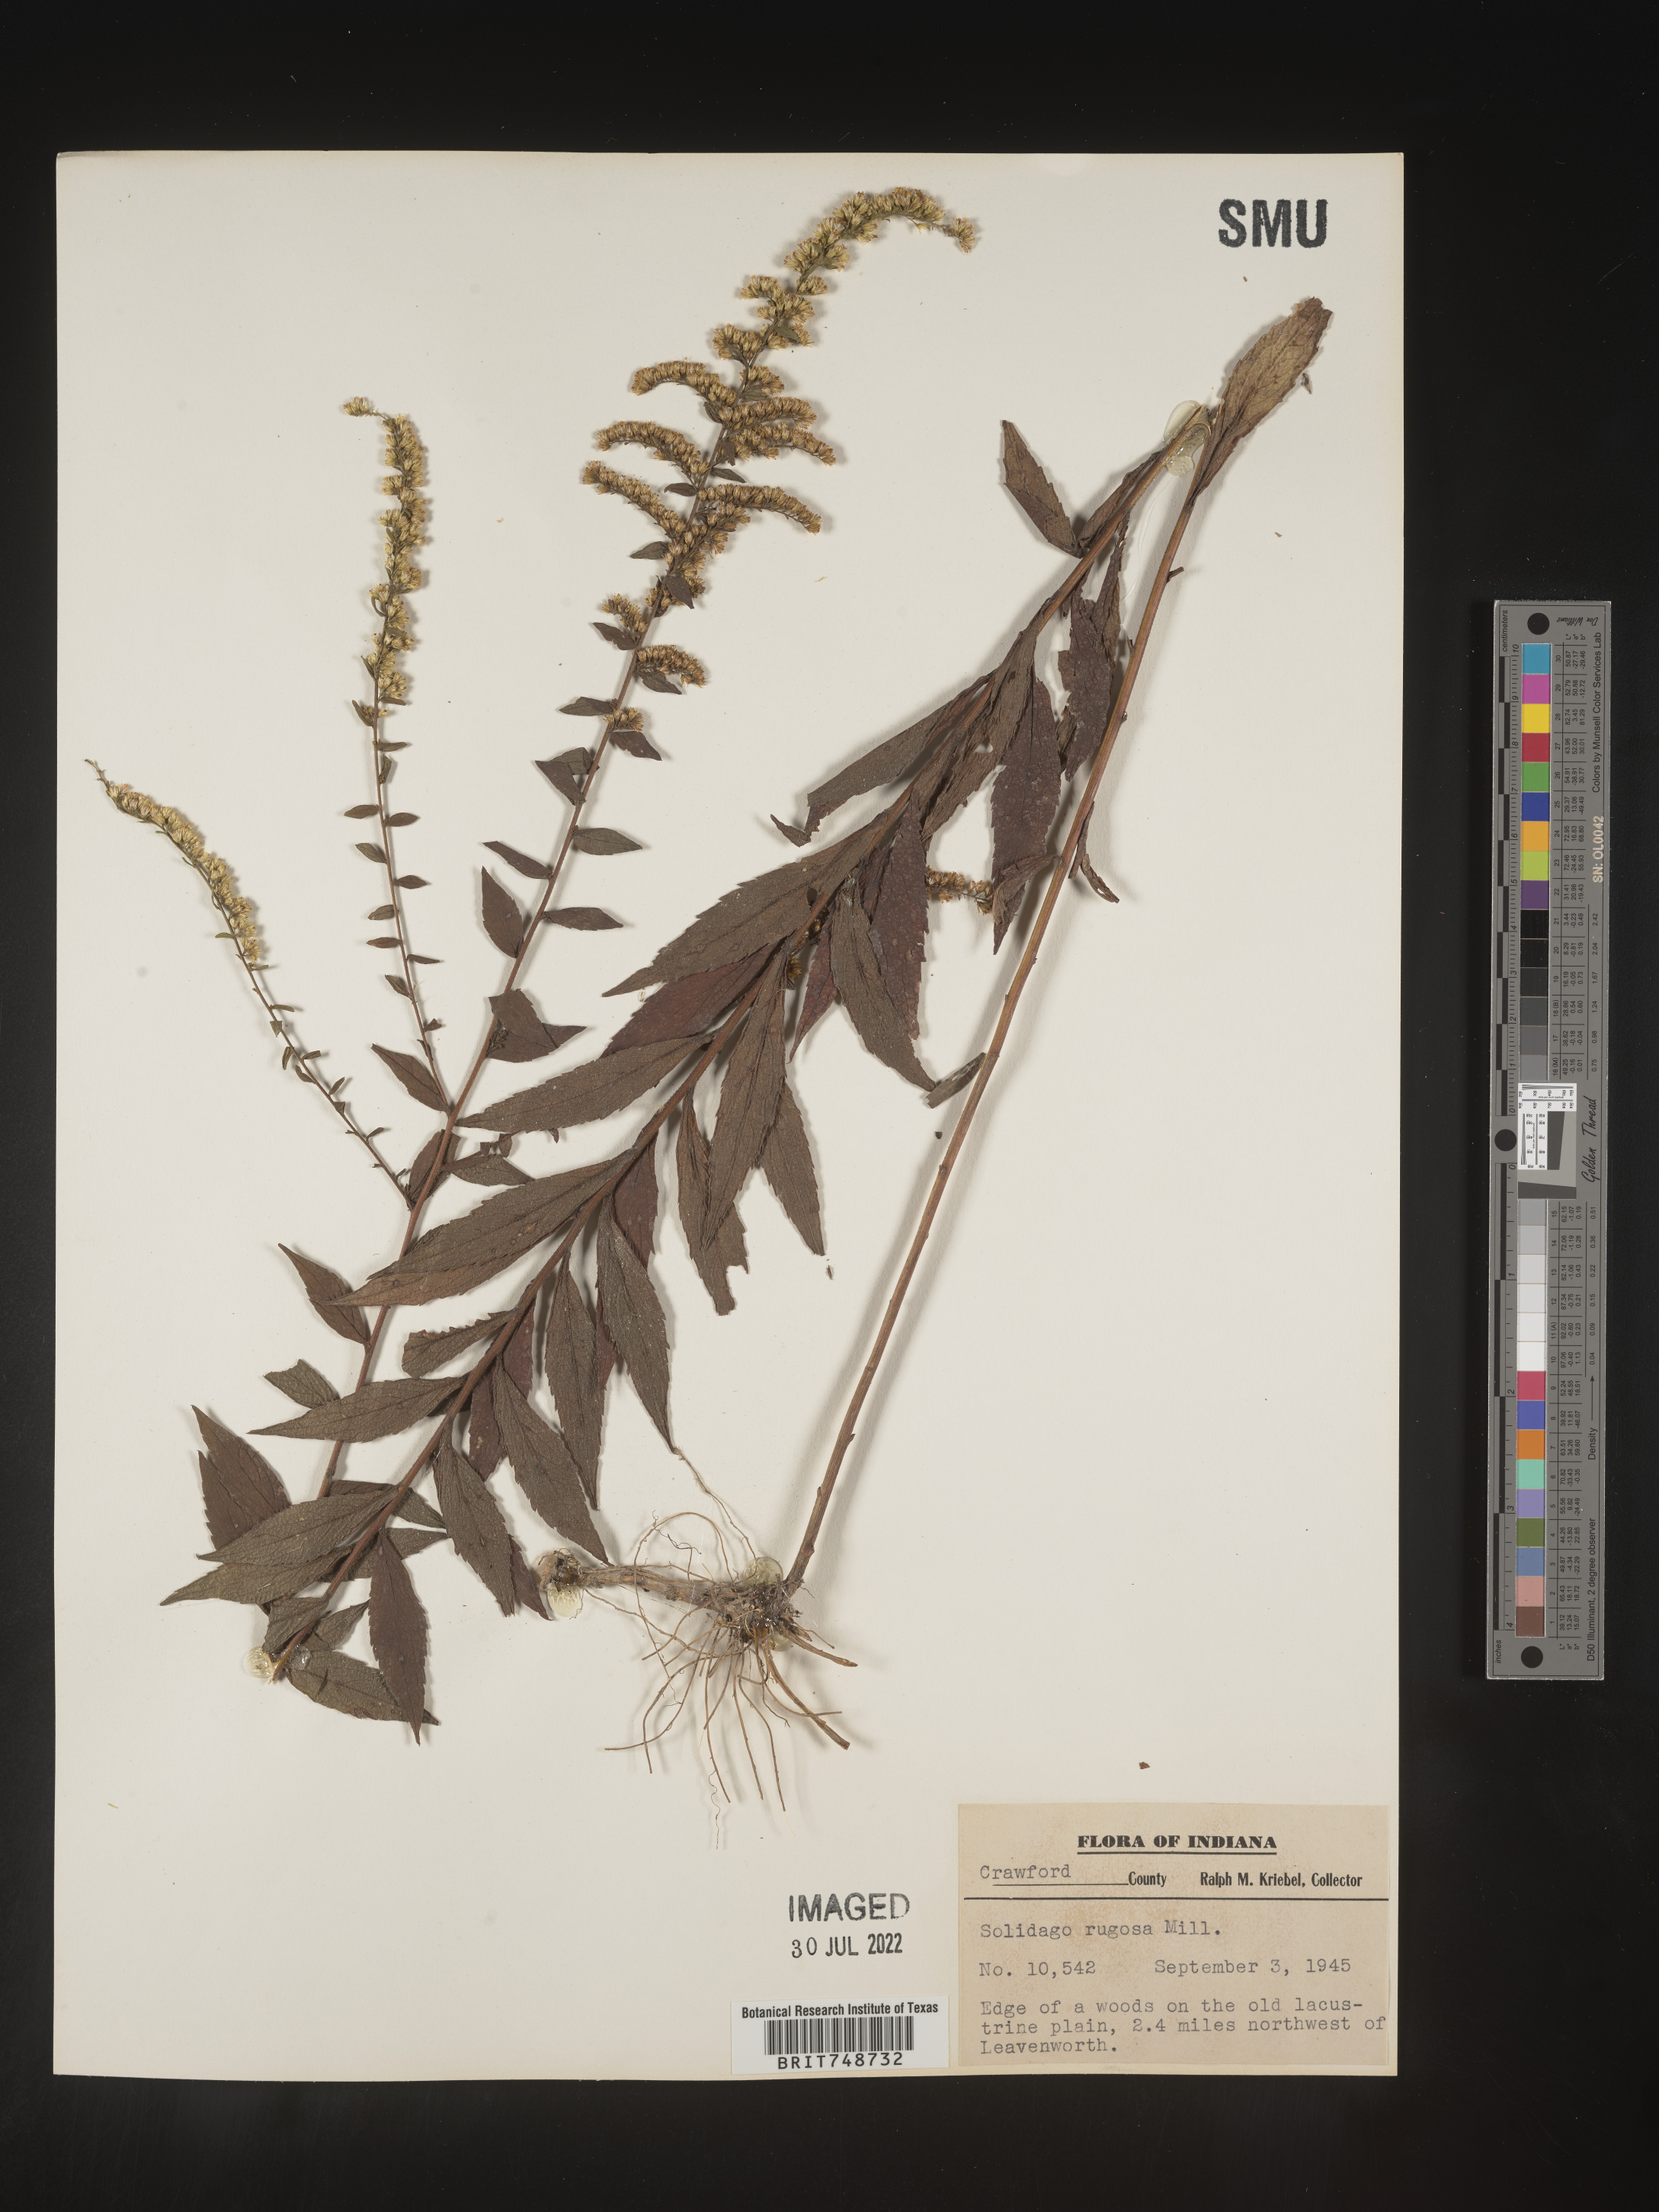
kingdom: Plantae
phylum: Tracheophyta
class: Magnoliopsida
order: Asterales
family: Asteraceae
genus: Solidago
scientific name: Solidago rugosa
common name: Rough-stemmed goldenrod
